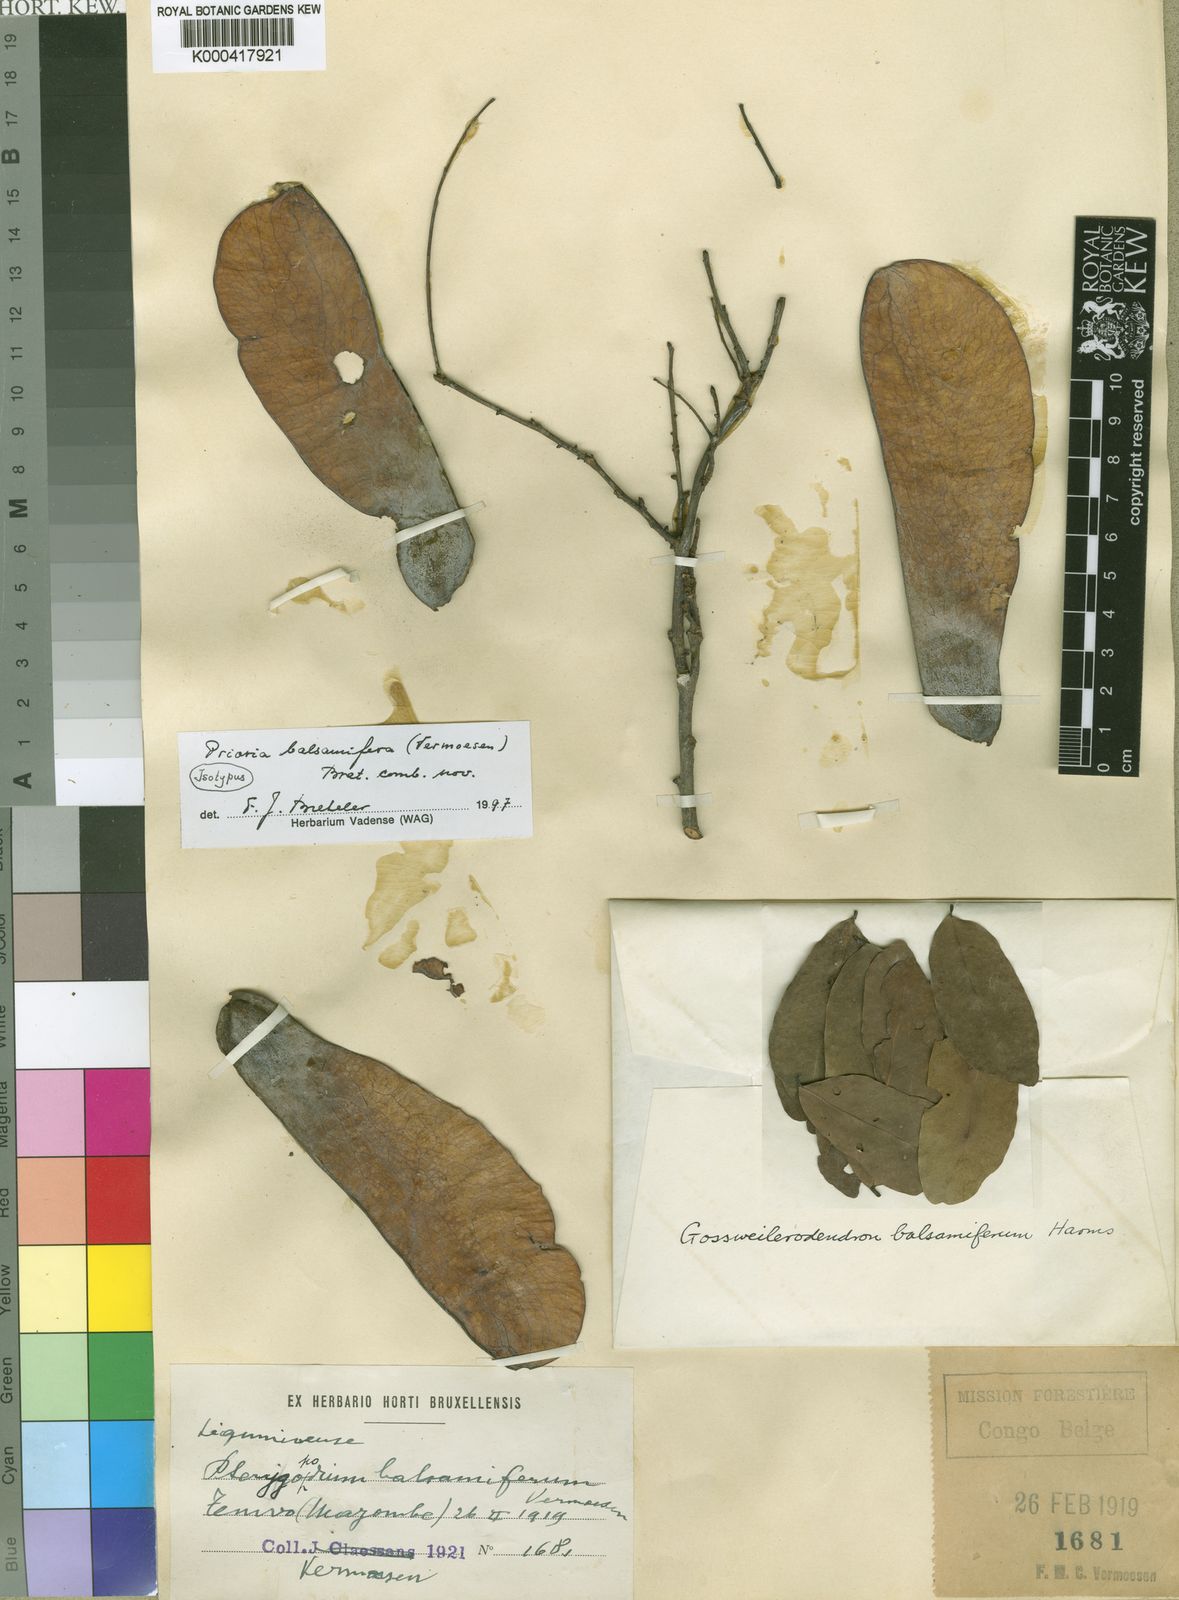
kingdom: Plantae
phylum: Tracheophyta
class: Magnoliopsida
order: Fabales
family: Fabaceae
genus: Prioria
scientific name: Prioria balsamifera
